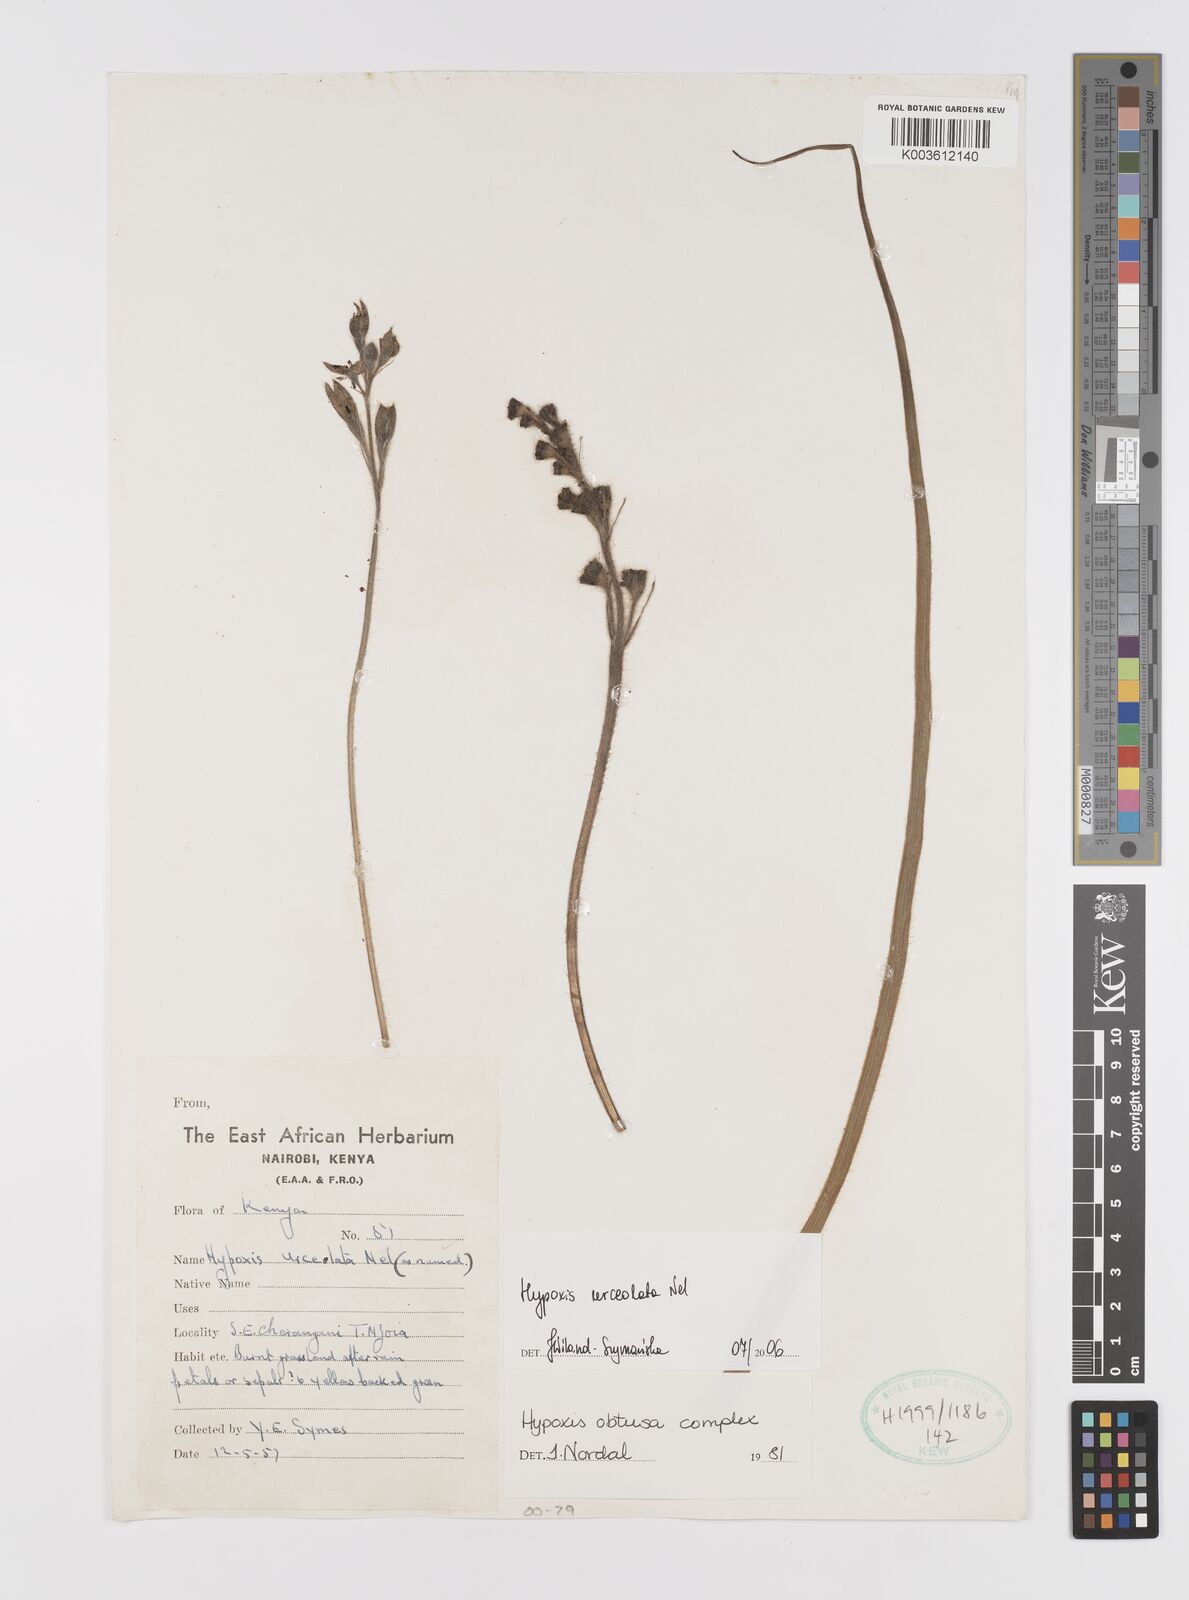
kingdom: Plantae
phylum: Tracheophyta
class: Liliopsida
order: Asparagales
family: Hypoxidaceae
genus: Hypoxis
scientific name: Hypoxis urceolata
